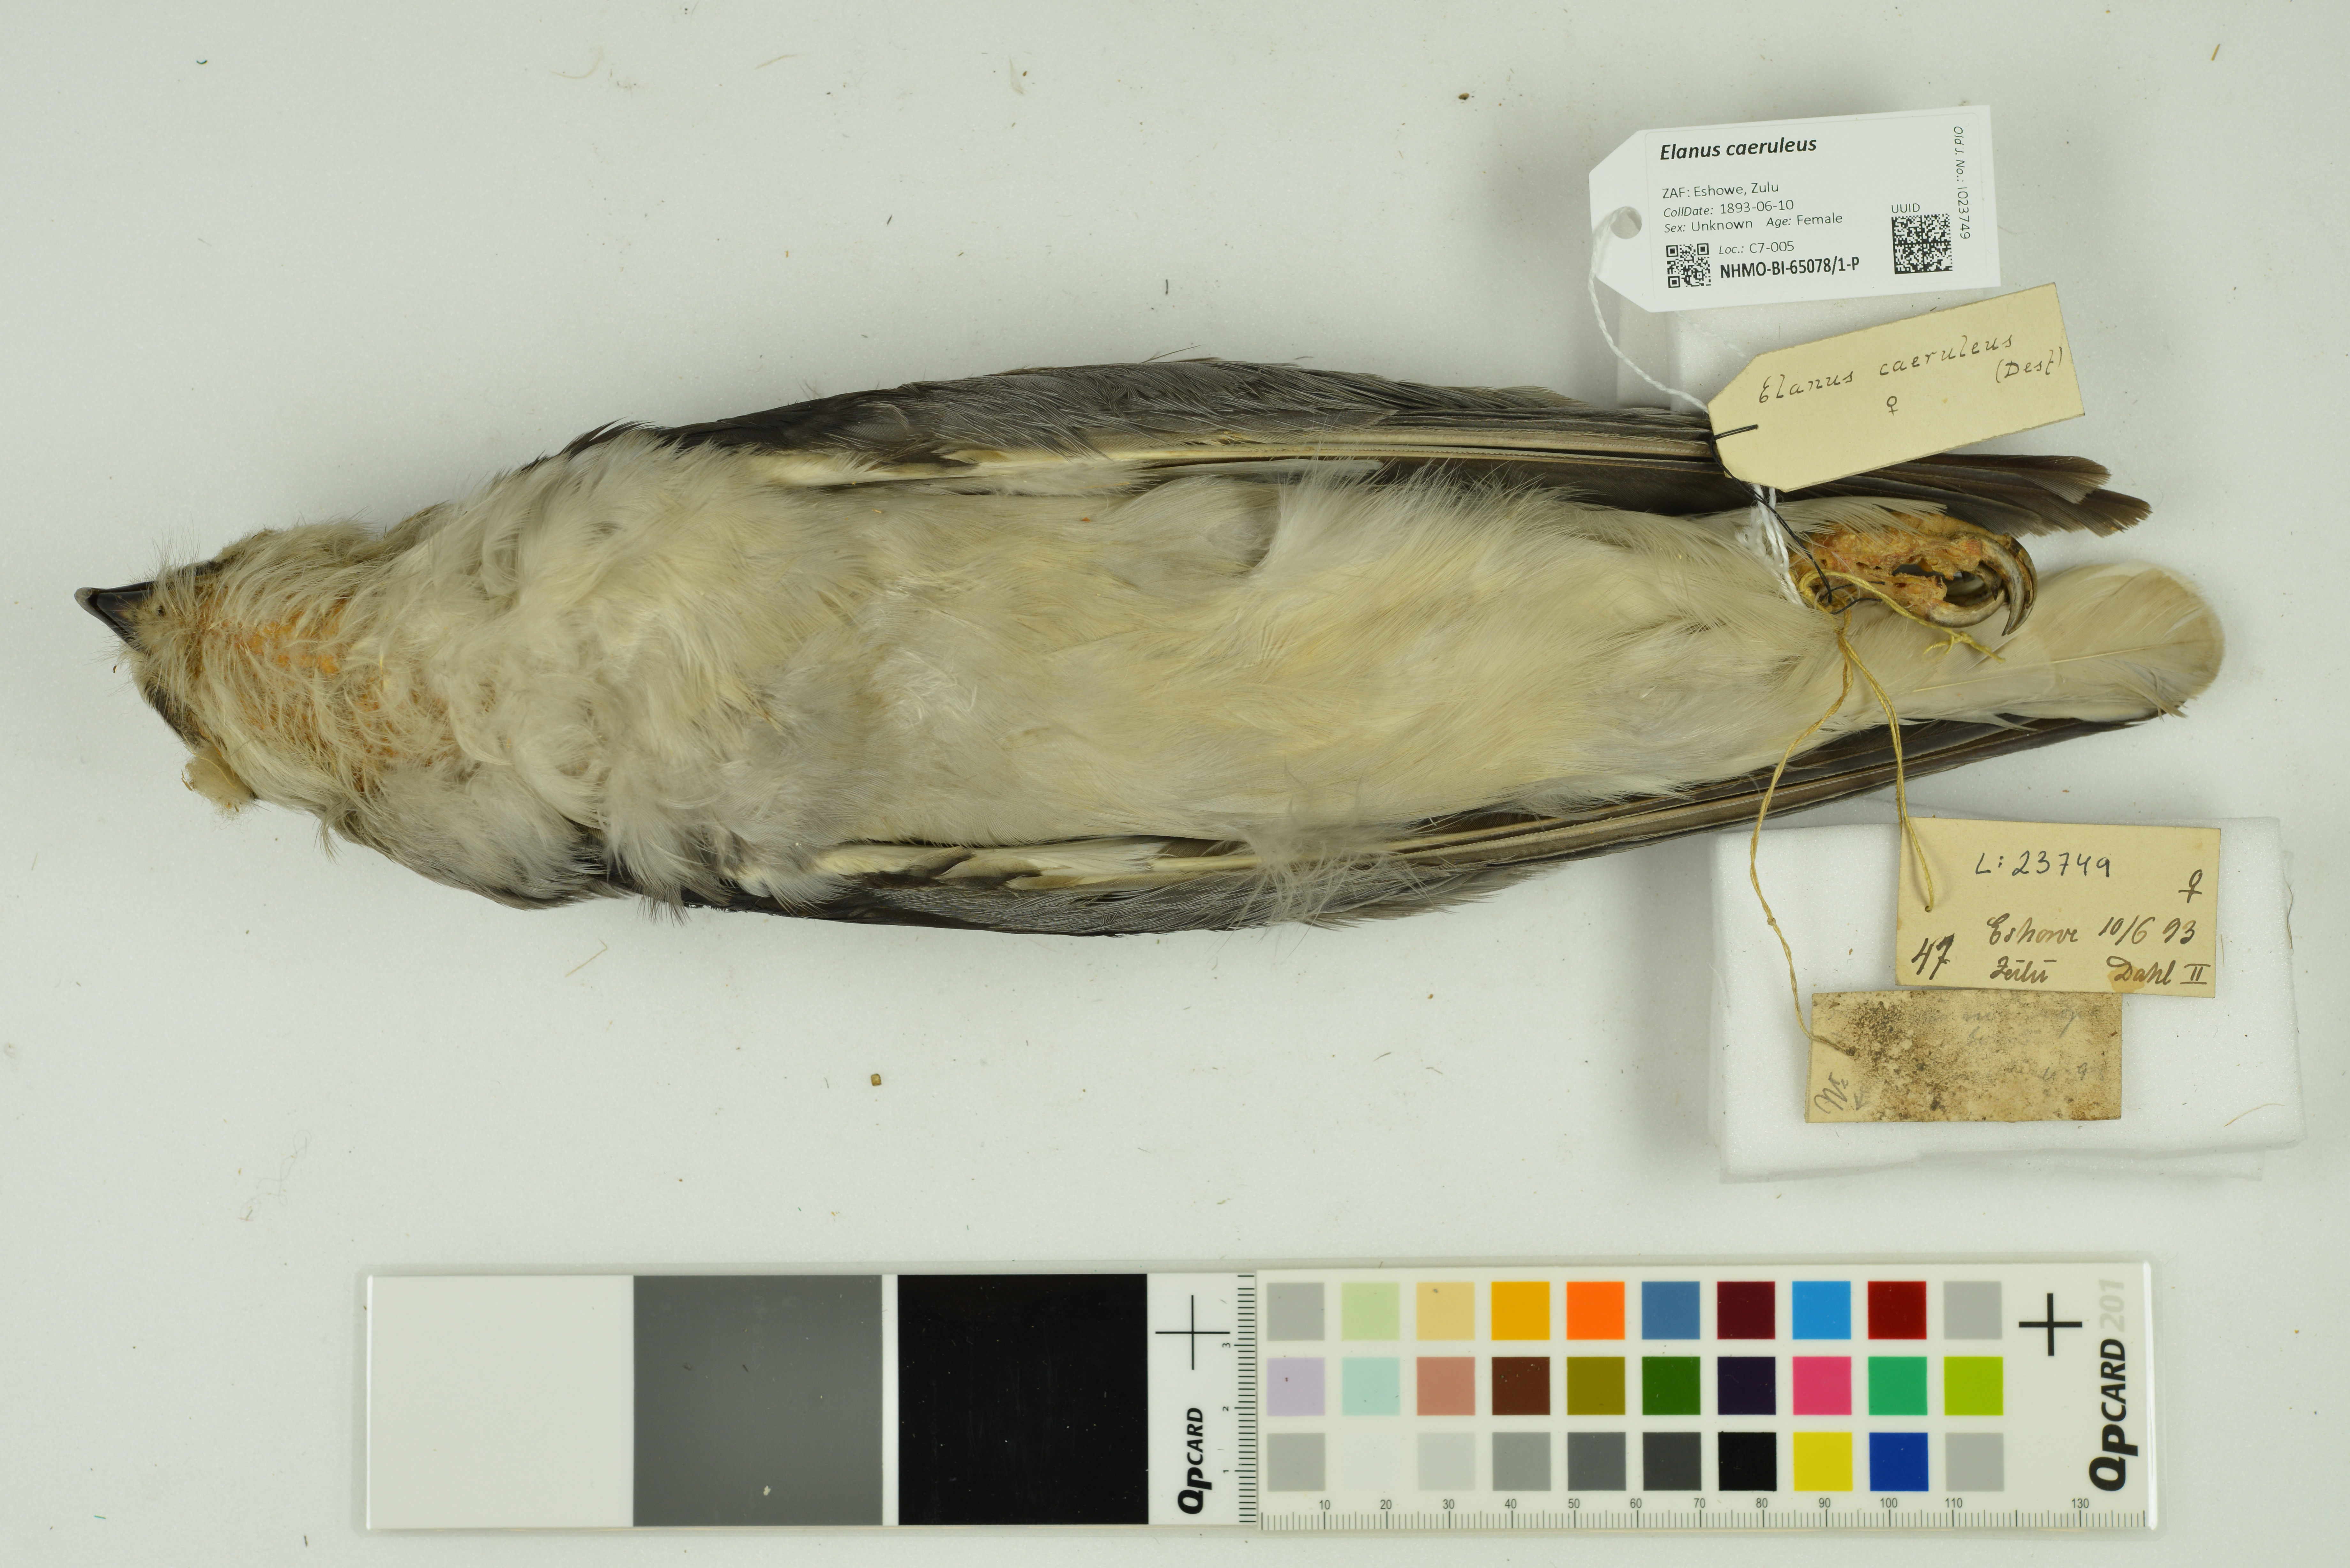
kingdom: Animalia
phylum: Chordata
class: Aves
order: Accipitriformes
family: Accipitridae
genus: Elanus
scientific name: Elanus caeruleus
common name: Black-winged kite
